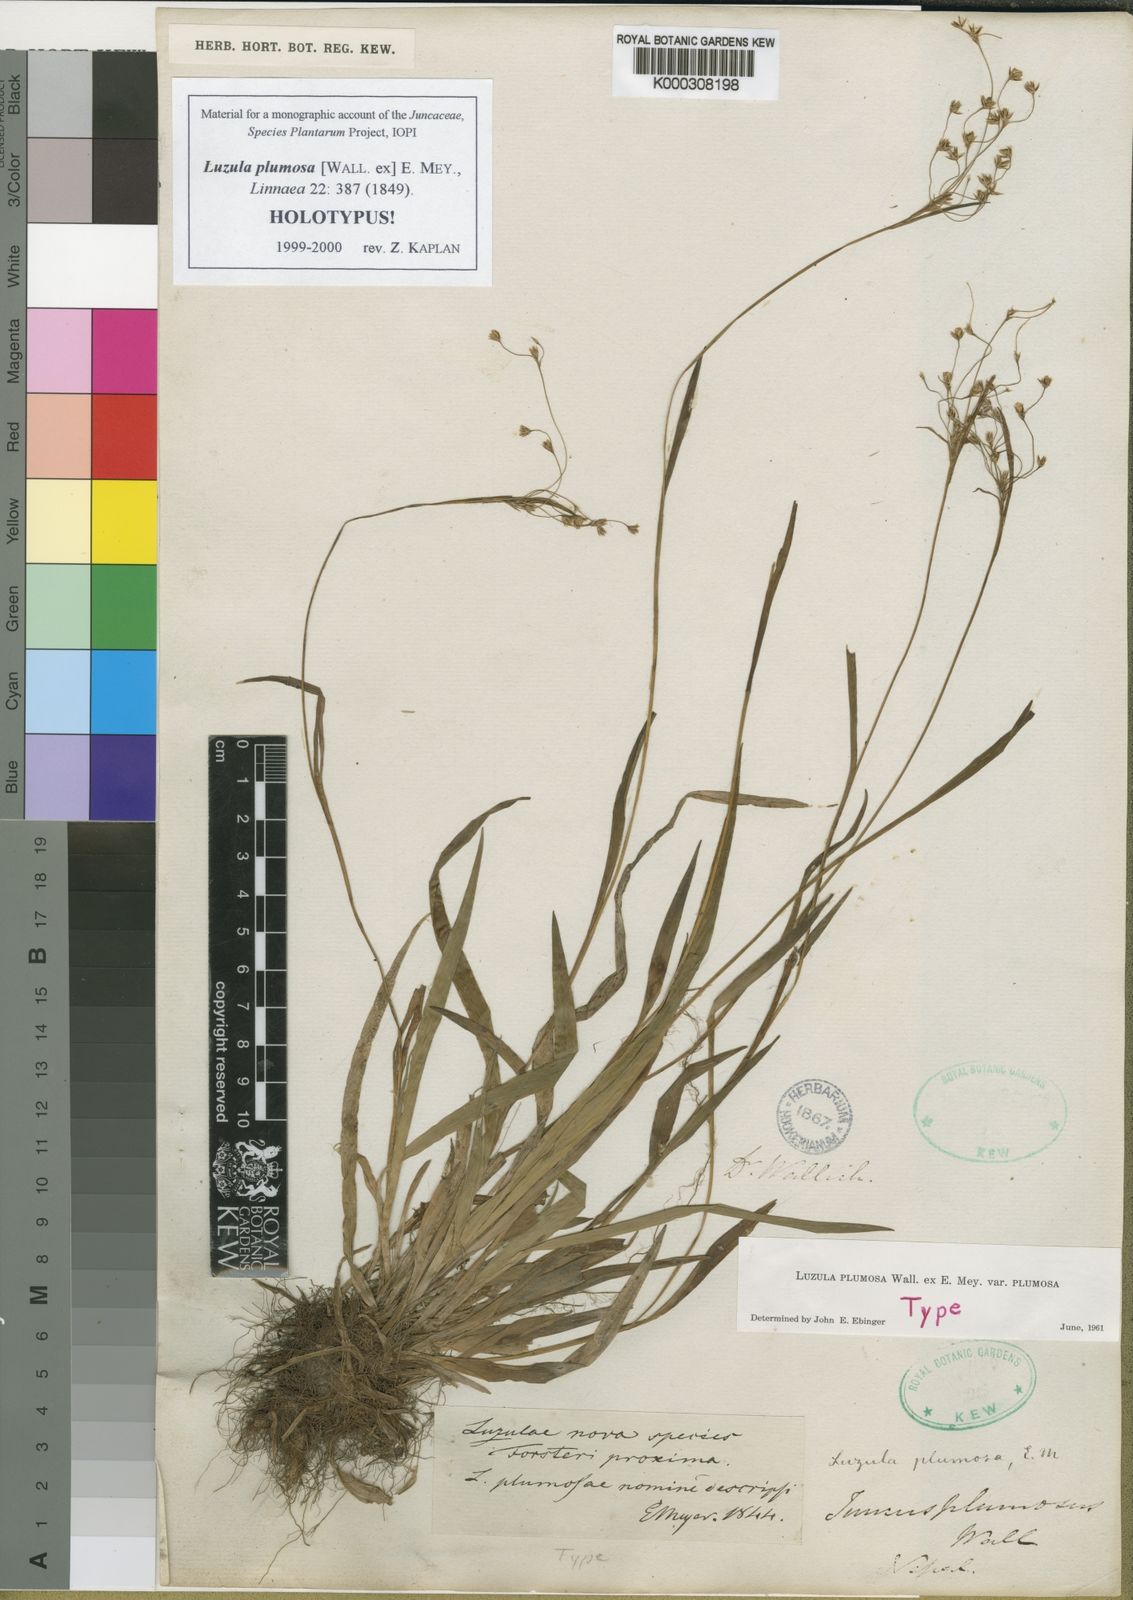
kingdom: Plantae
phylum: Tracheophyta
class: Liliopsida
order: Poales
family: Juncaceae
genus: Luzula
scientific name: Luzula plumosa
